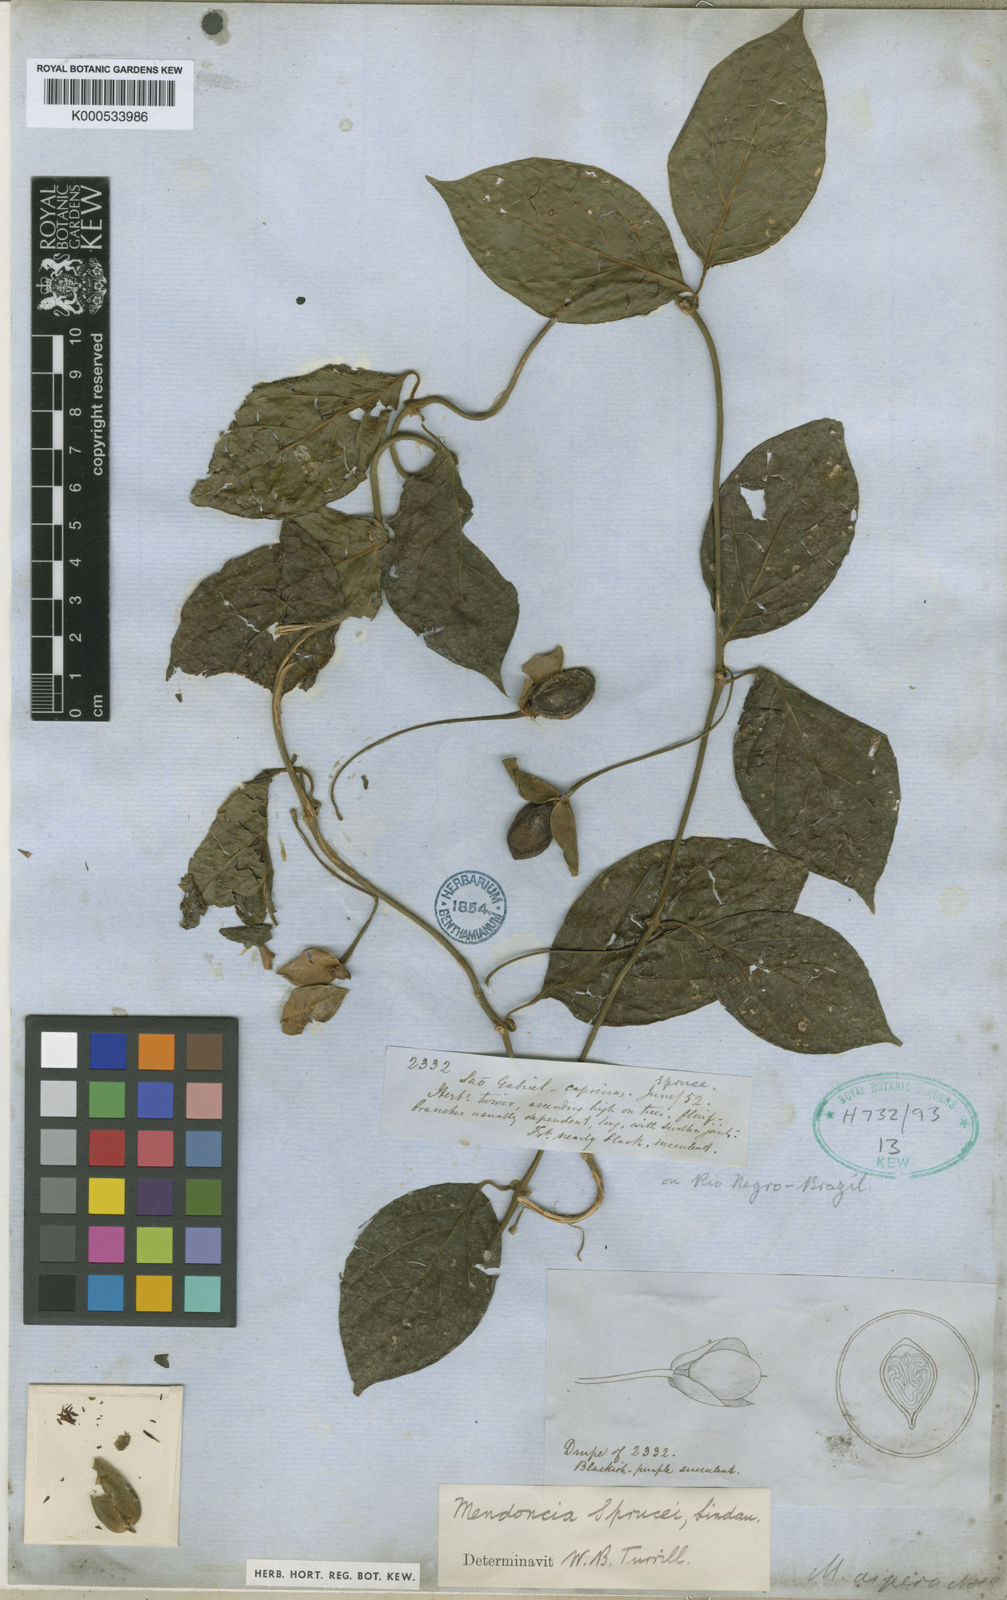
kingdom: Plantae
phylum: Tracheophyta
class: Magnoliopsida
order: Lamiales
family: Acanthaceae
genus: Mendoncia
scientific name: Mendoncia sprucei
